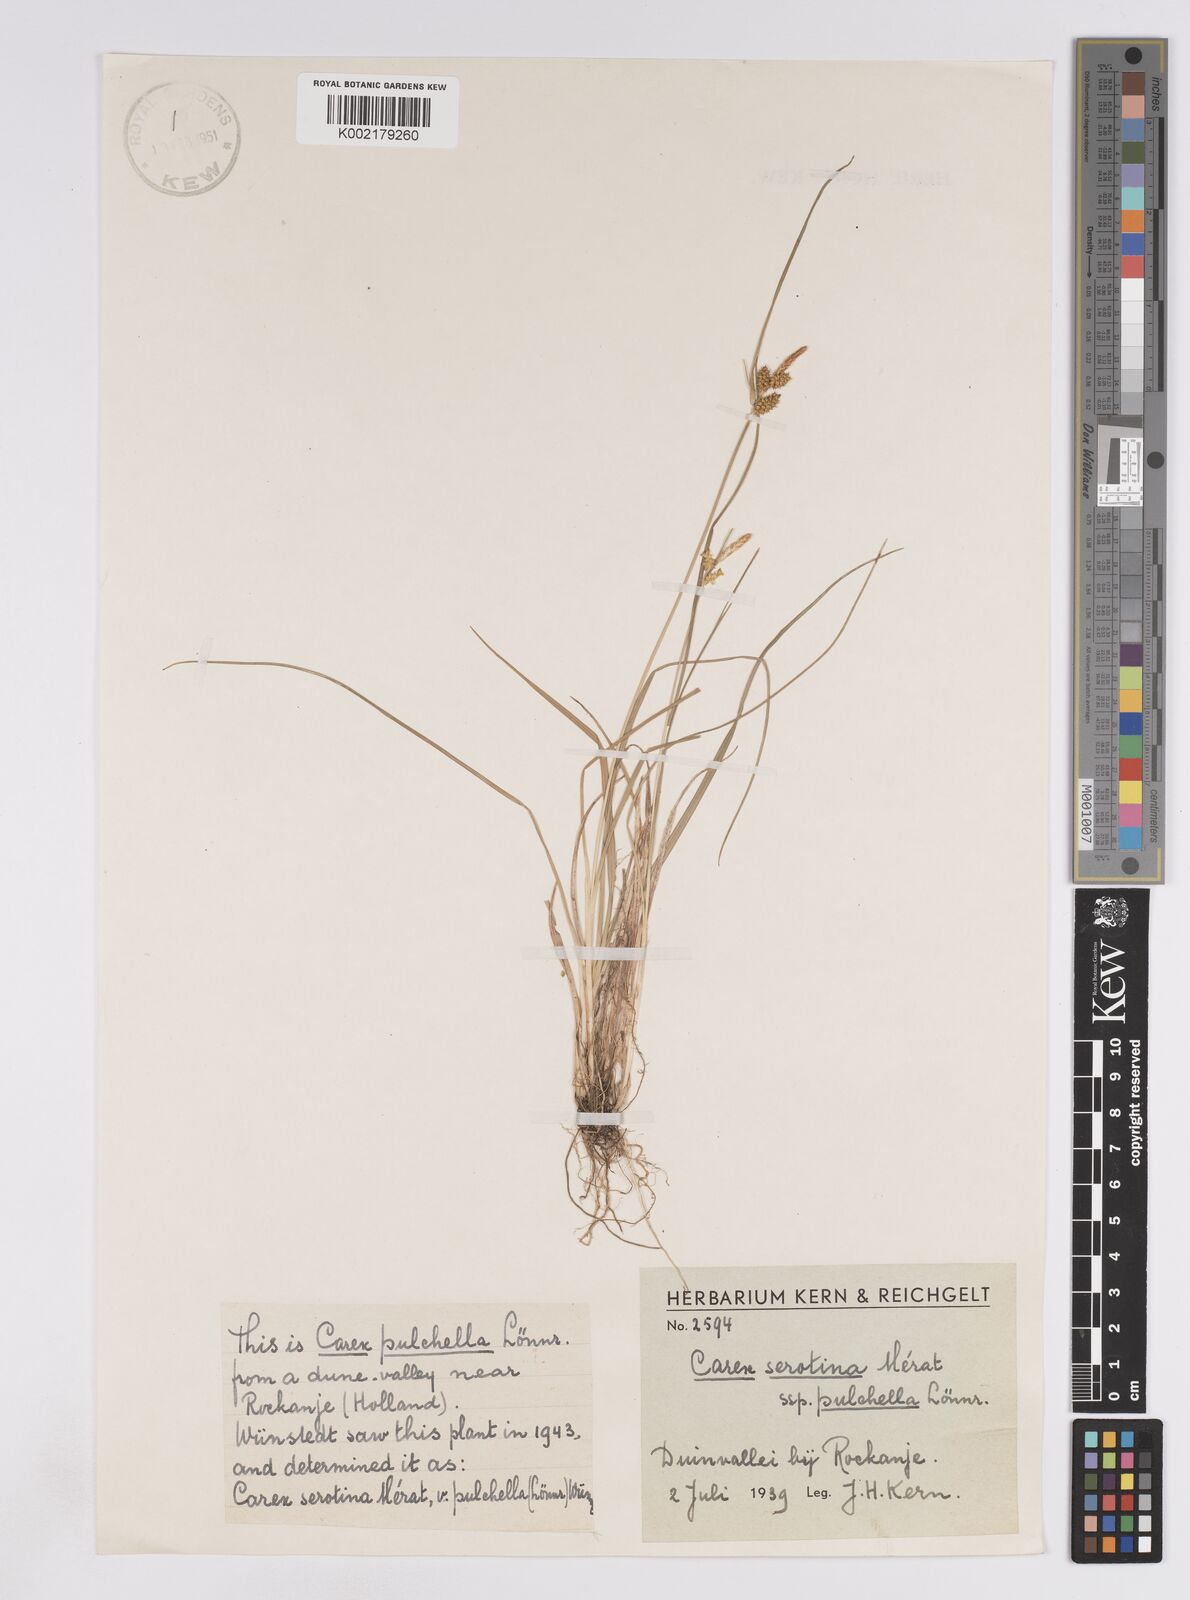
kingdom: Plantae
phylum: Tracheophyta
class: Liliopsida
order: Poales
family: Cyperaceae
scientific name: Cyperaceae
